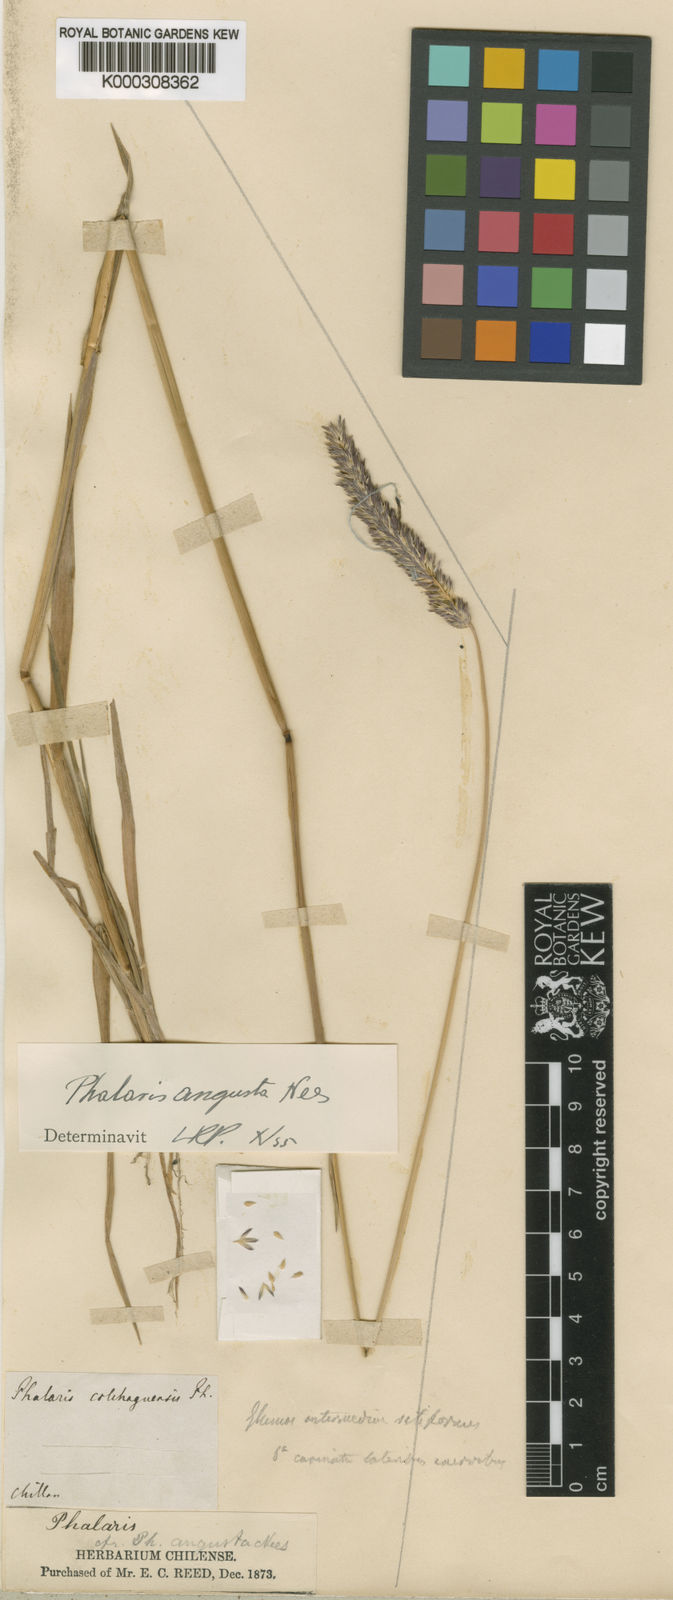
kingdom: Plantae
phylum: Tracheophyta
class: Liliopsida
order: Poales
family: Poaceae
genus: Phalaris
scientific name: Phalaris angusta
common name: Narrow canary grass
